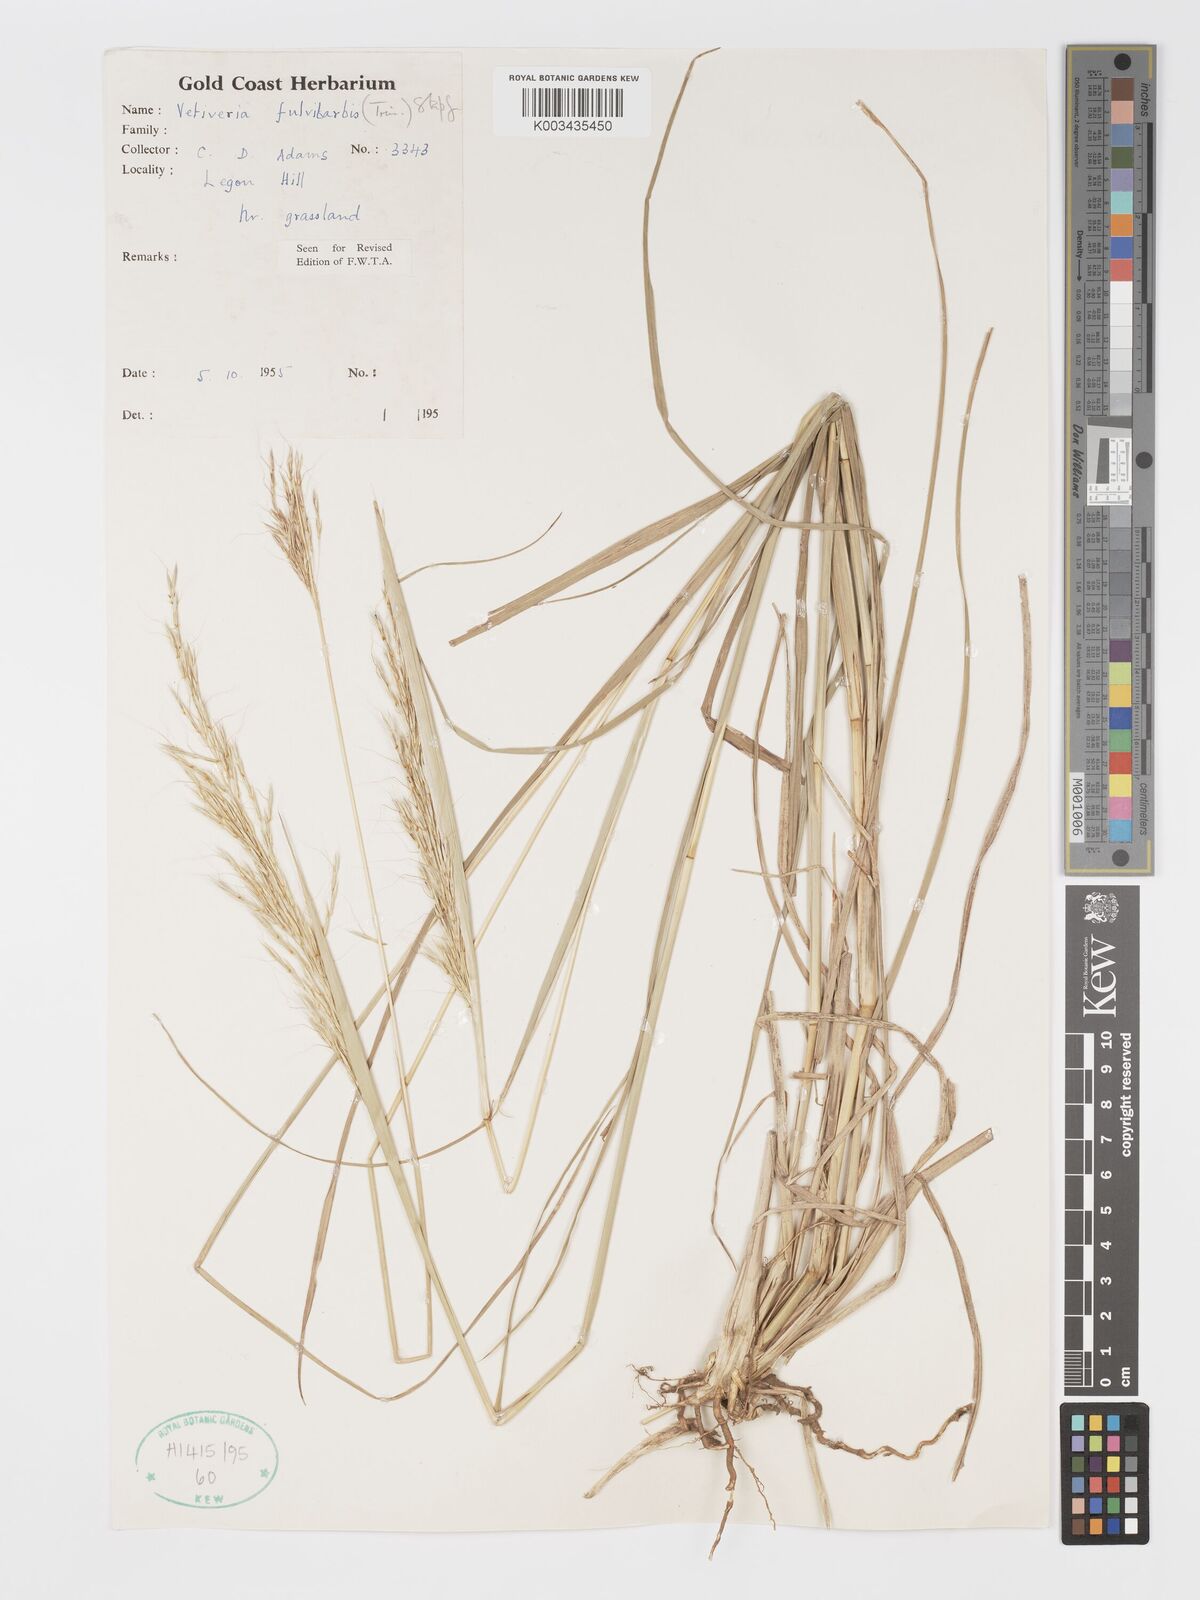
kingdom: Plantae
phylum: Tracheophyta
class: Liliopsida
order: Poales
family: Poaceae
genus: Chrysopogon
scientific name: Chrysopogon fulvibarbis
